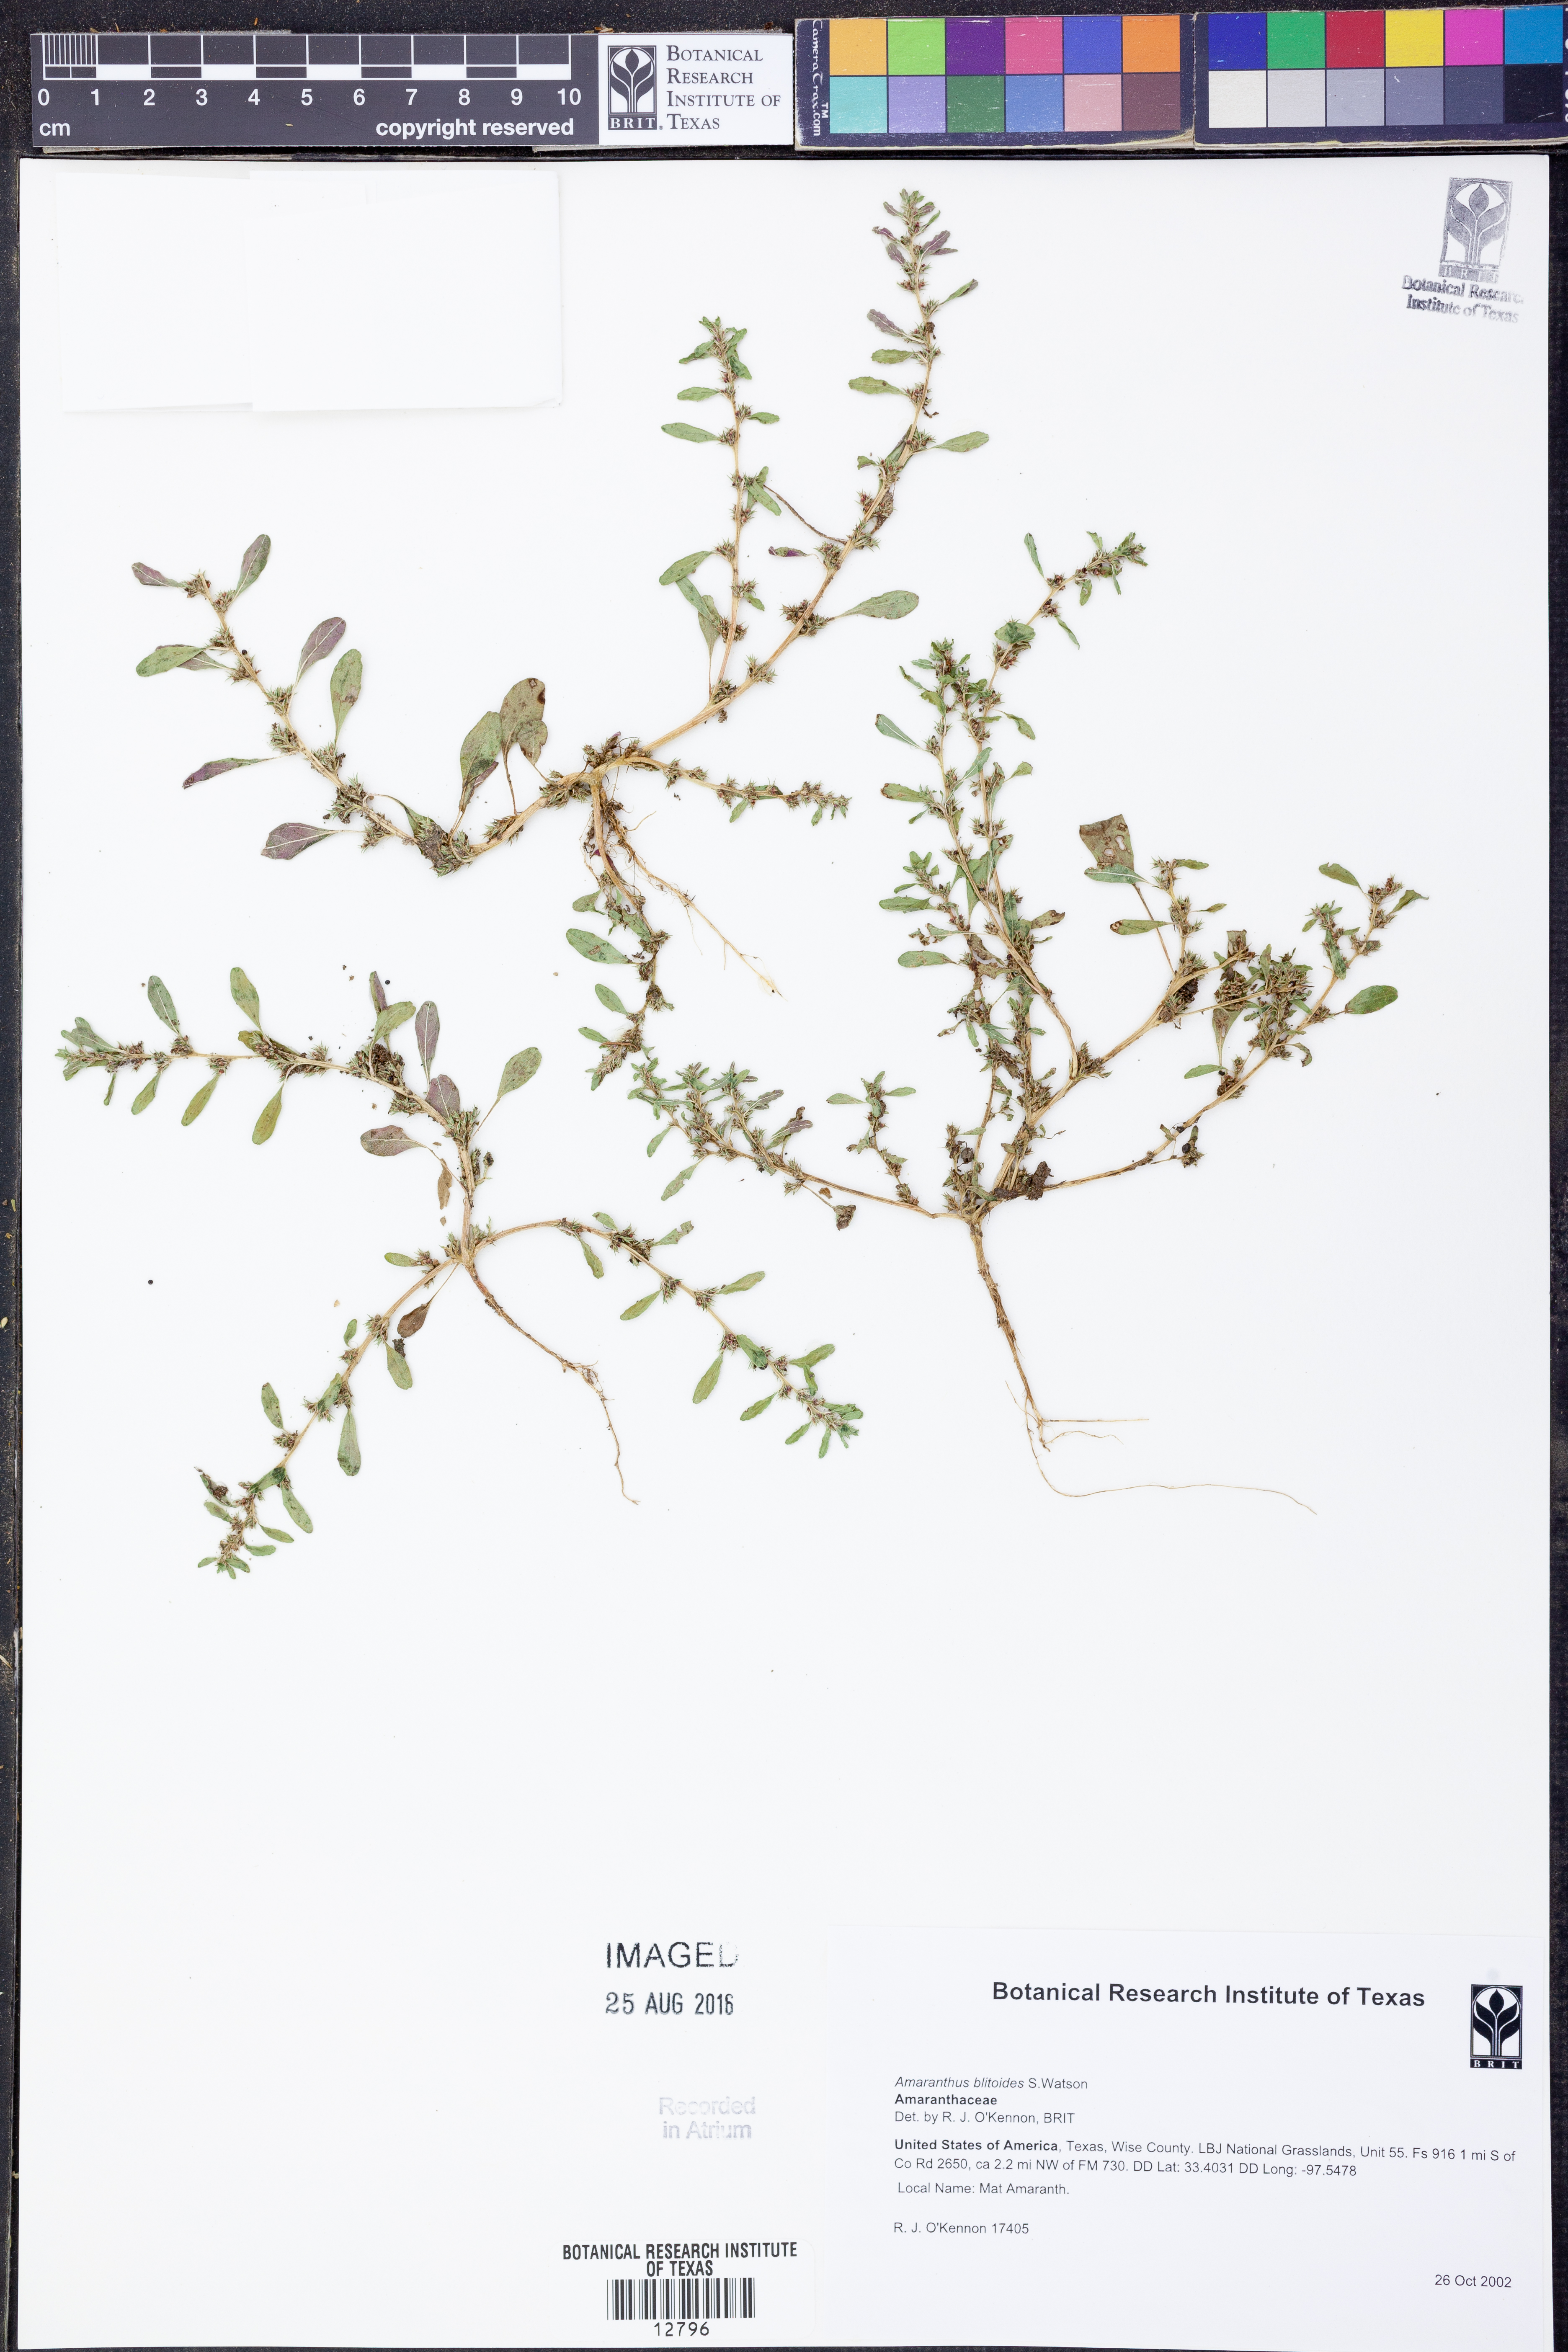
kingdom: Plantae
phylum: Tracheophyta
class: Magnoliopsida
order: Caryophyllales
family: Amaranthaceae
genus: Amaranthus
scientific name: Amaranthus blitoides
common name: Prostrate pigweed
